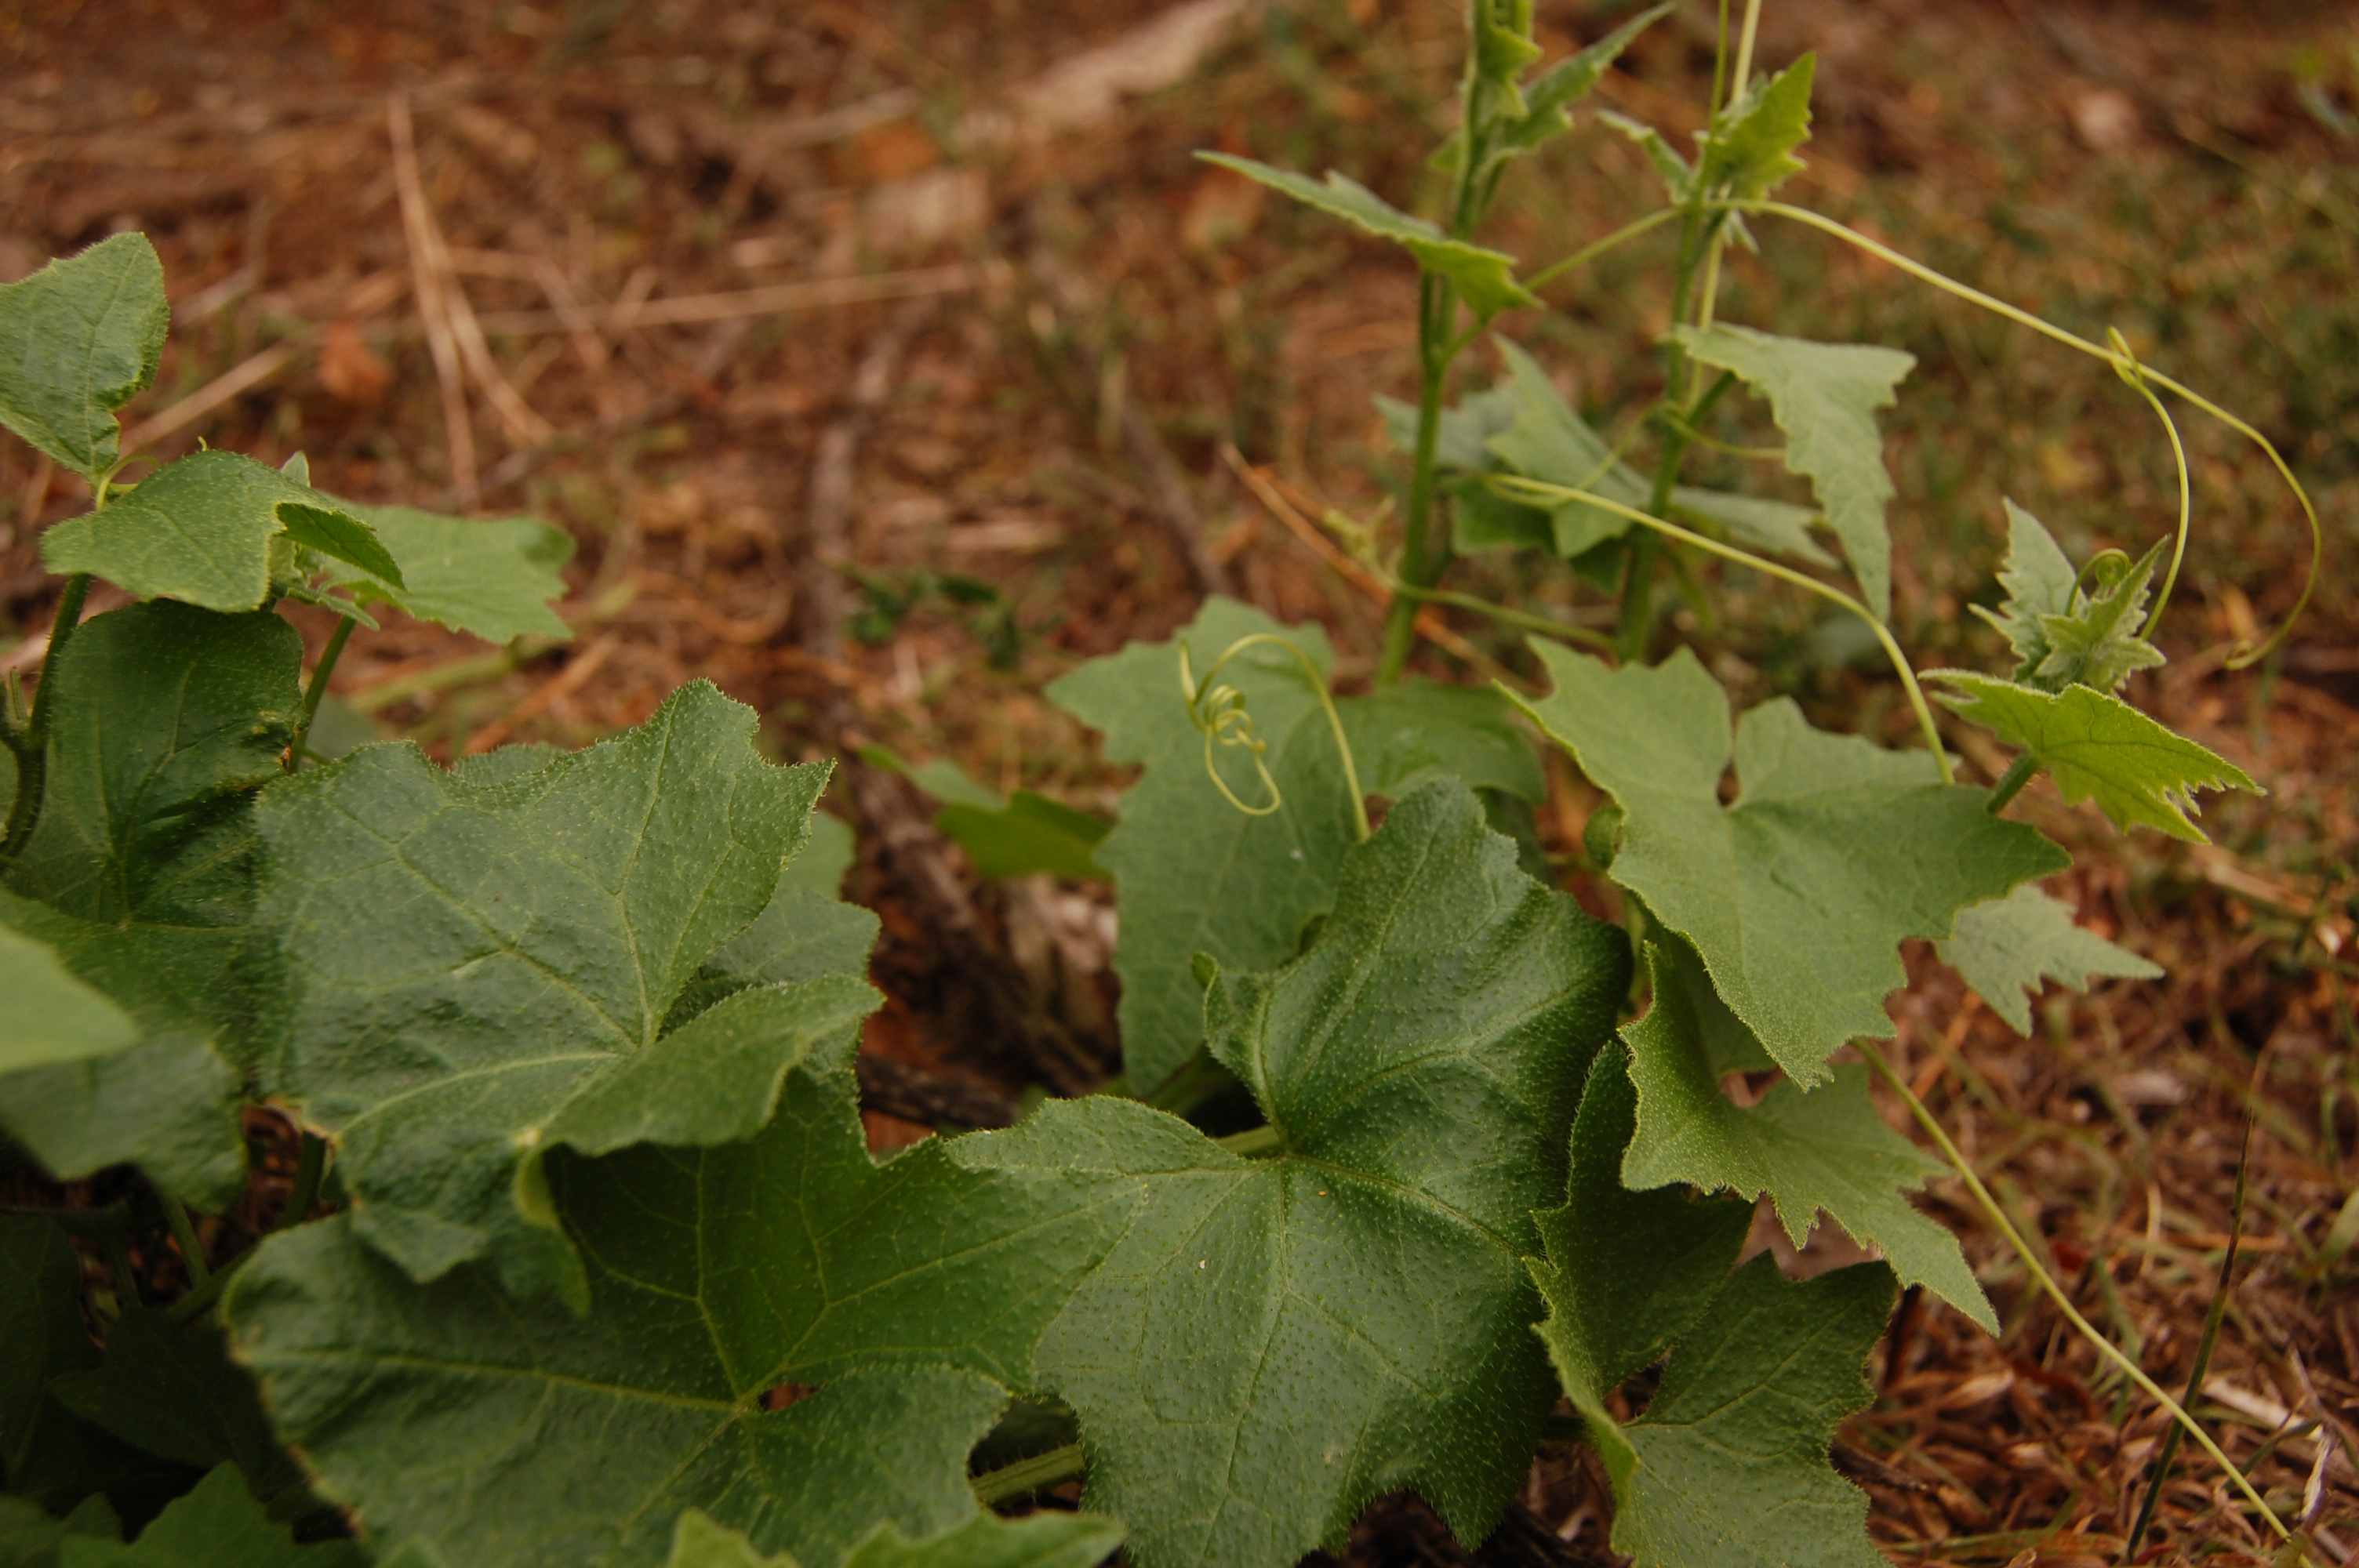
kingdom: Plantae
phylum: Tracheophyta
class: Magnoliopsida
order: Cucurbitales
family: Cucurbitaceae
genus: Bryonia
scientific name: Bryonia alba
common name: White bryony
